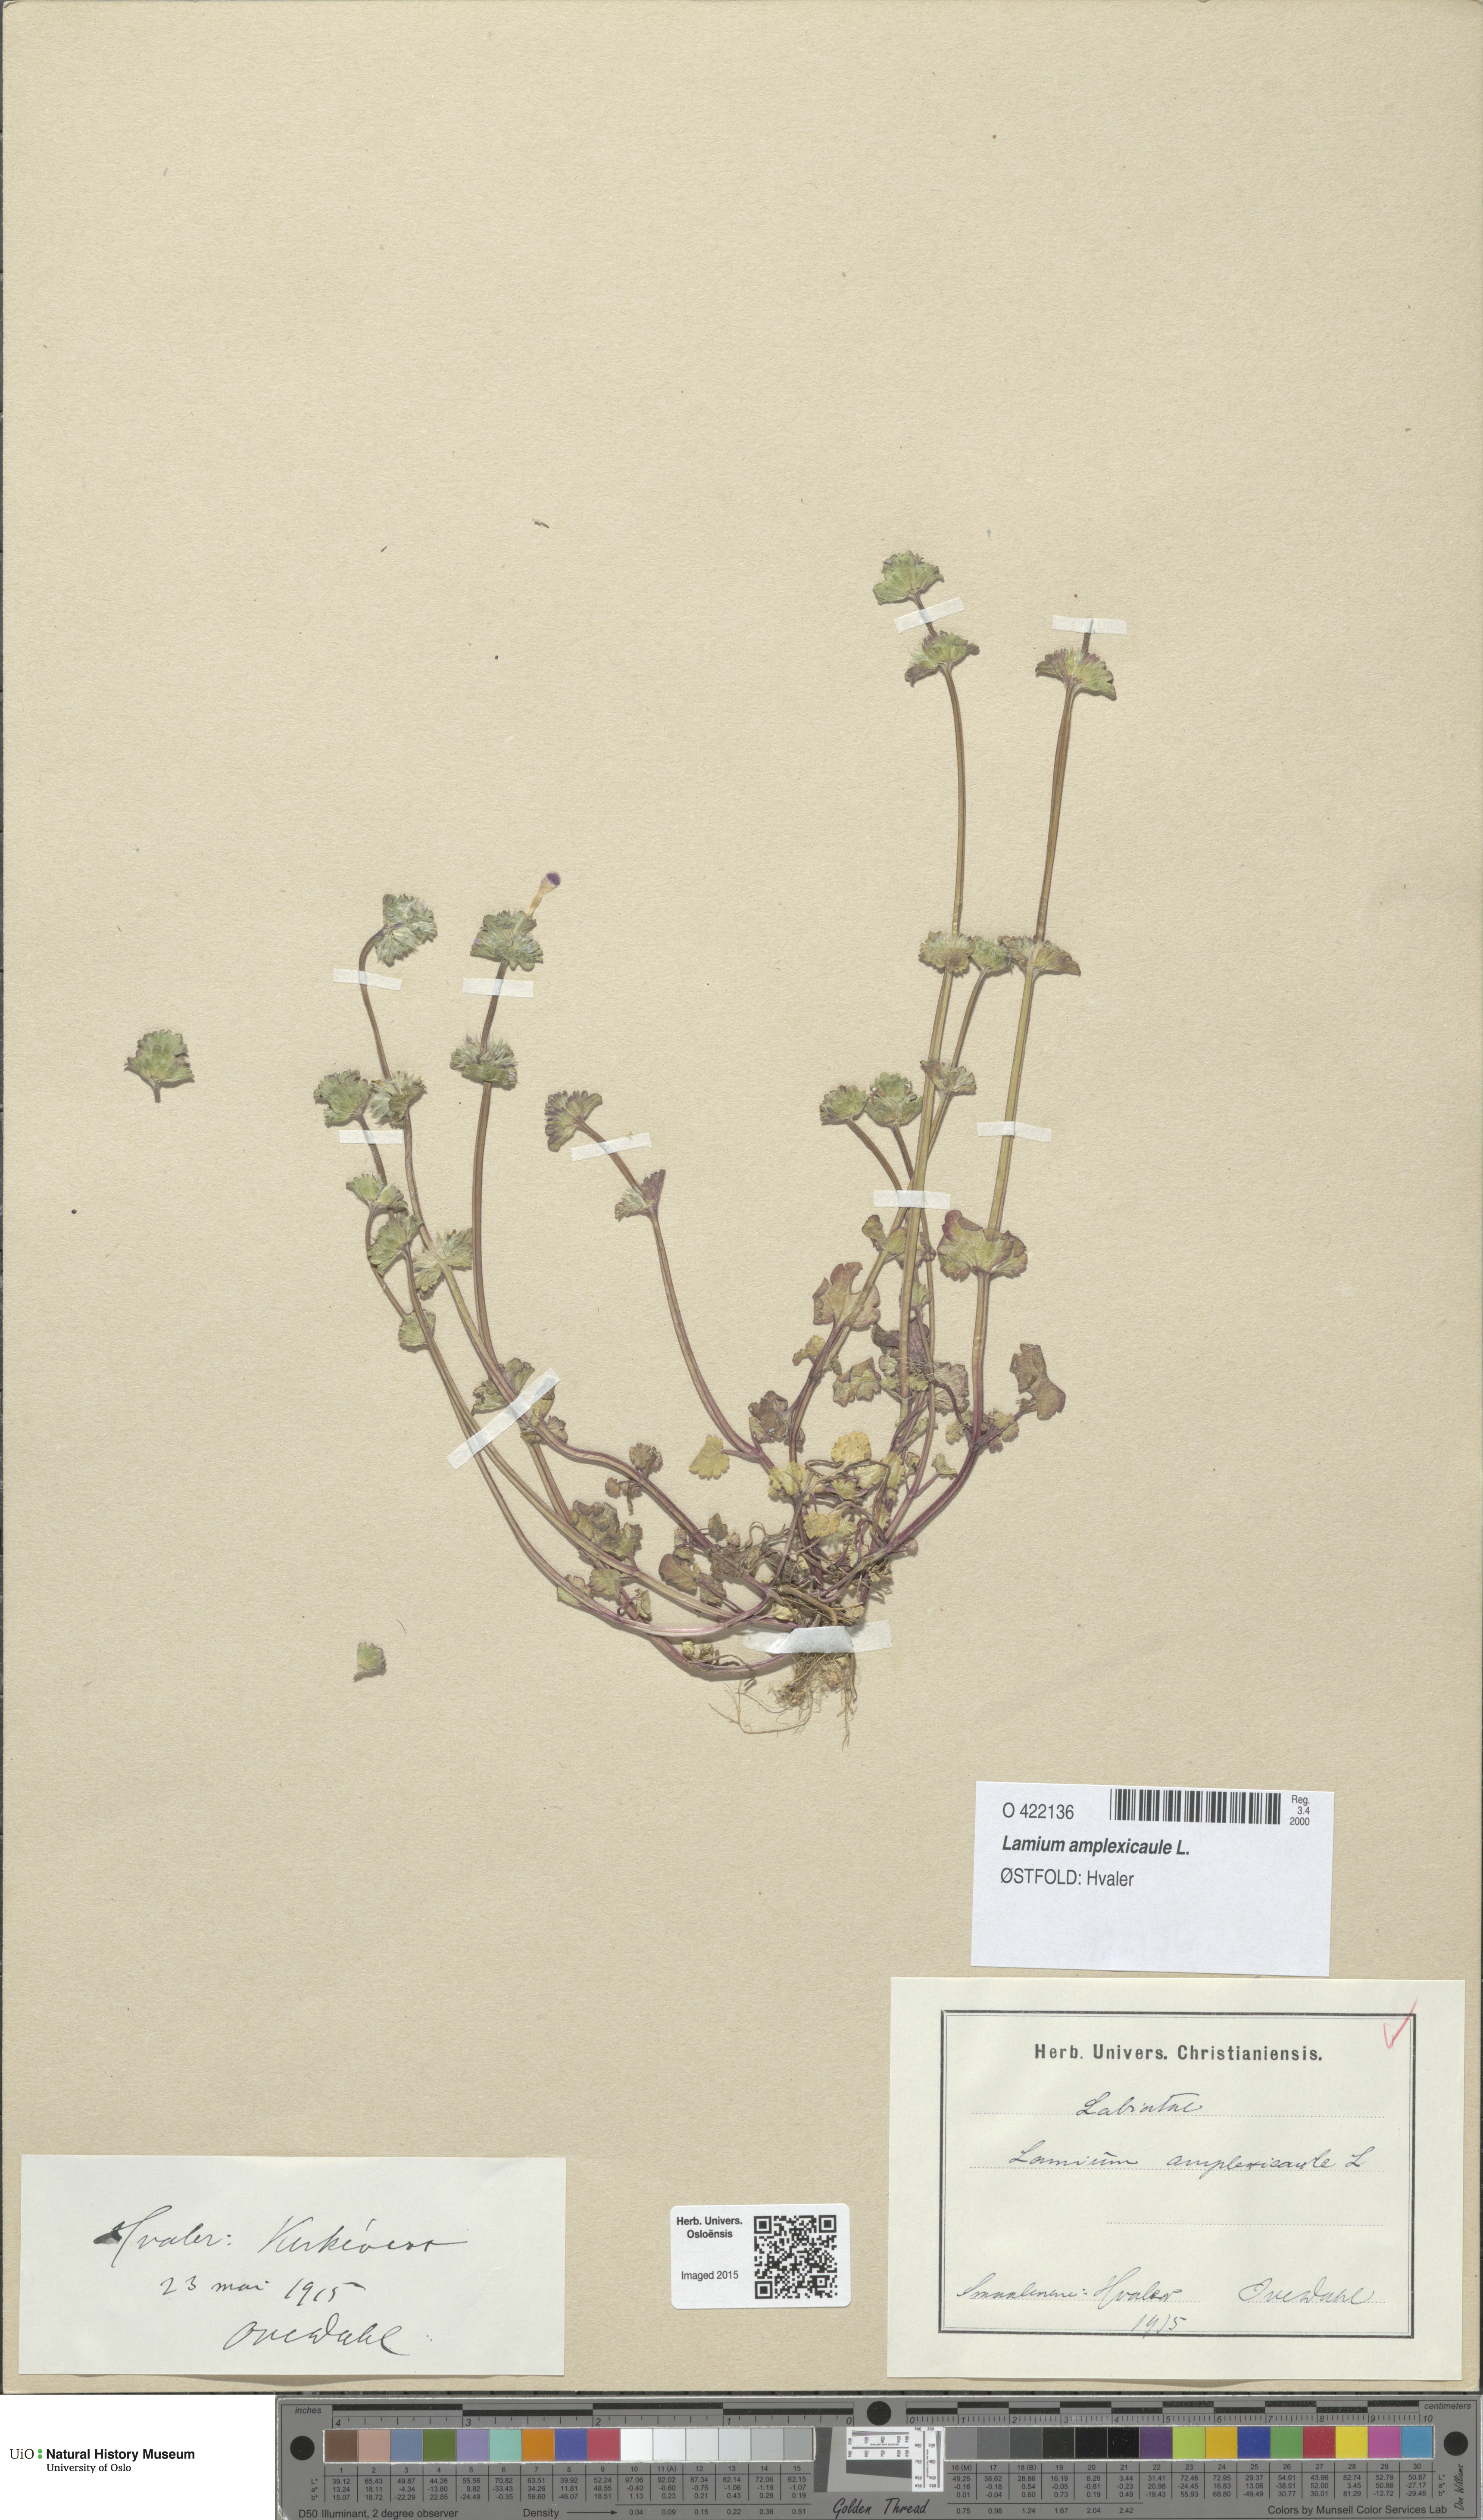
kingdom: Plantae
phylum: Tracheophyta
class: Magnoliopsida
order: Lamiales
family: Lamiaceae
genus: Lamium
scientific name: Lamium amplexicaule
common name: Henbit dead-nettle
